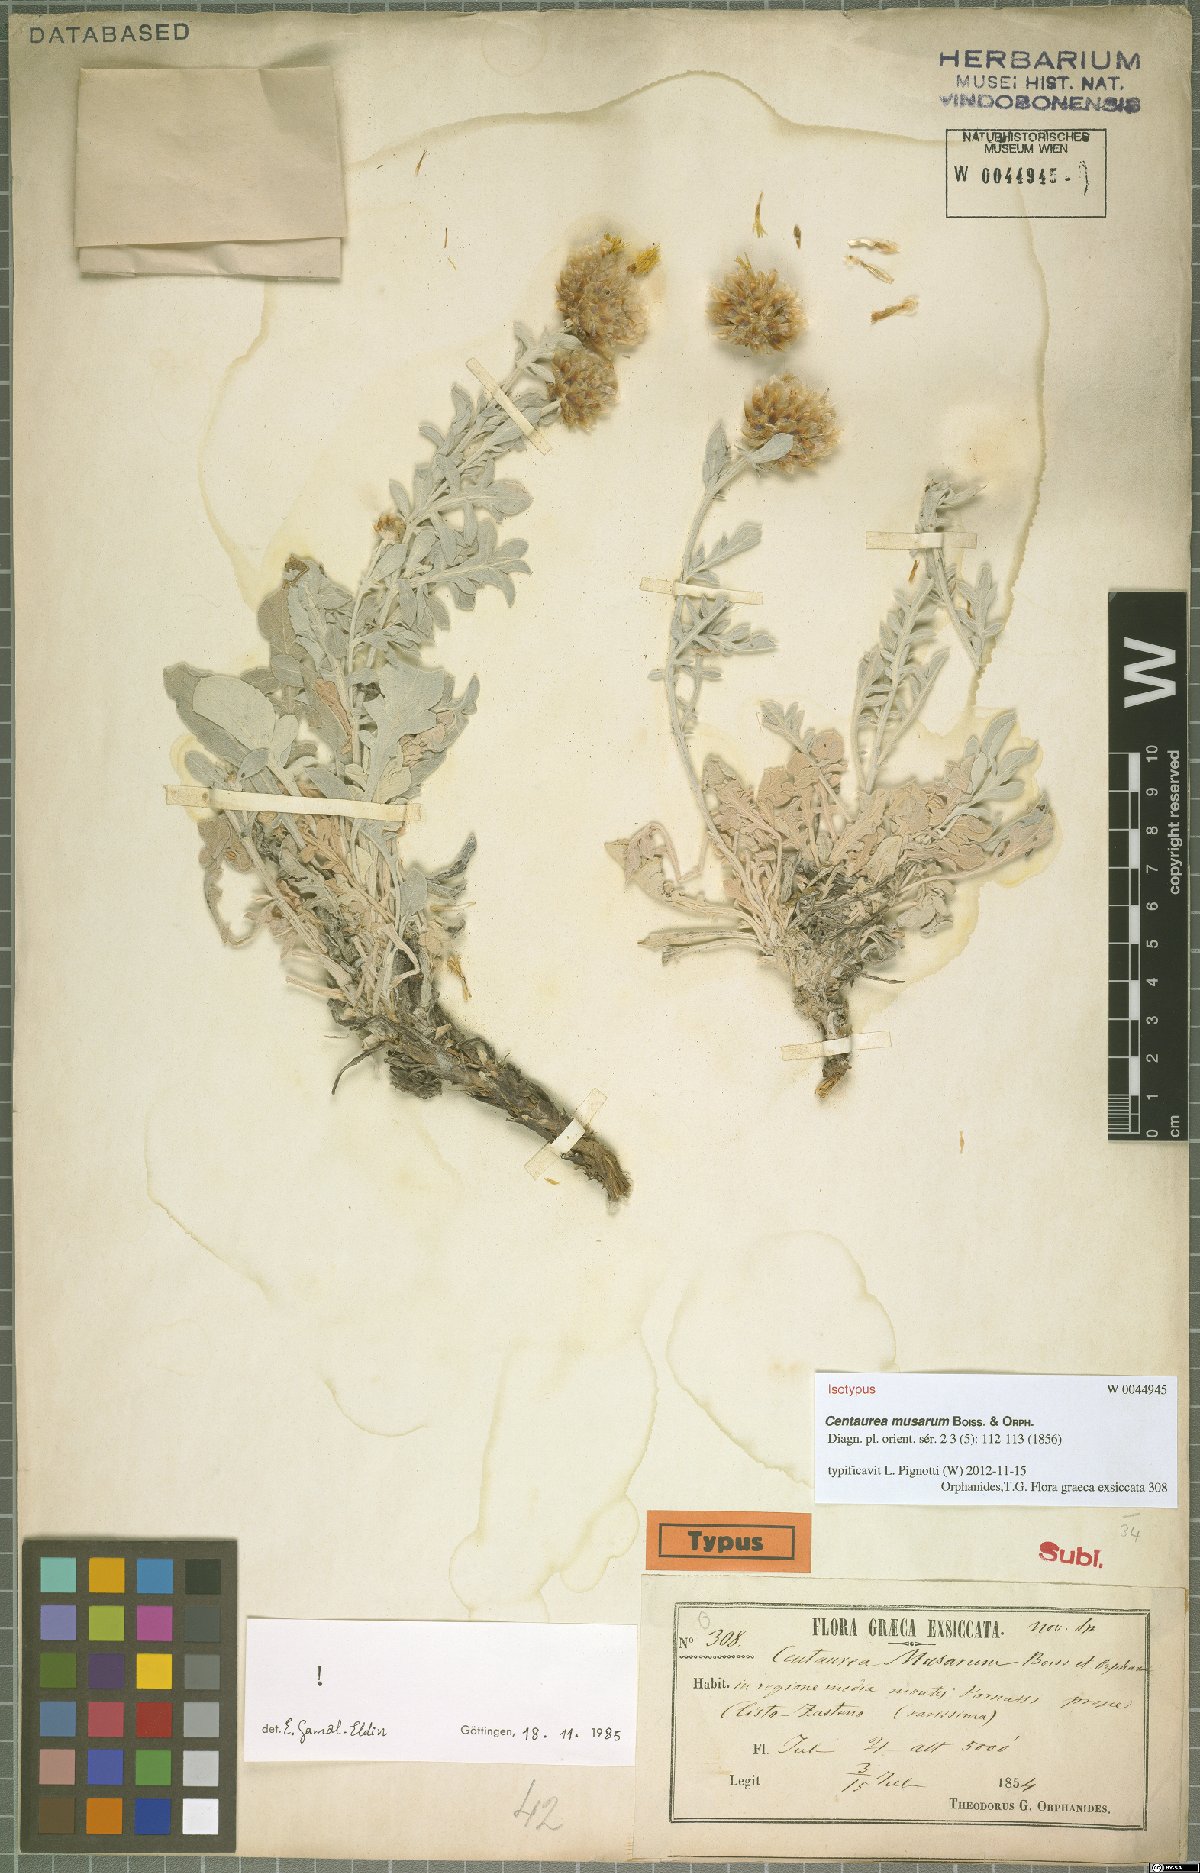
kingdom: Plantae
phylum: Tracheophyta
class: Magnoliopsida
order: Asterales
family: Asteraceae
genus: Centaurea
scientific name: Centaurea musarum
